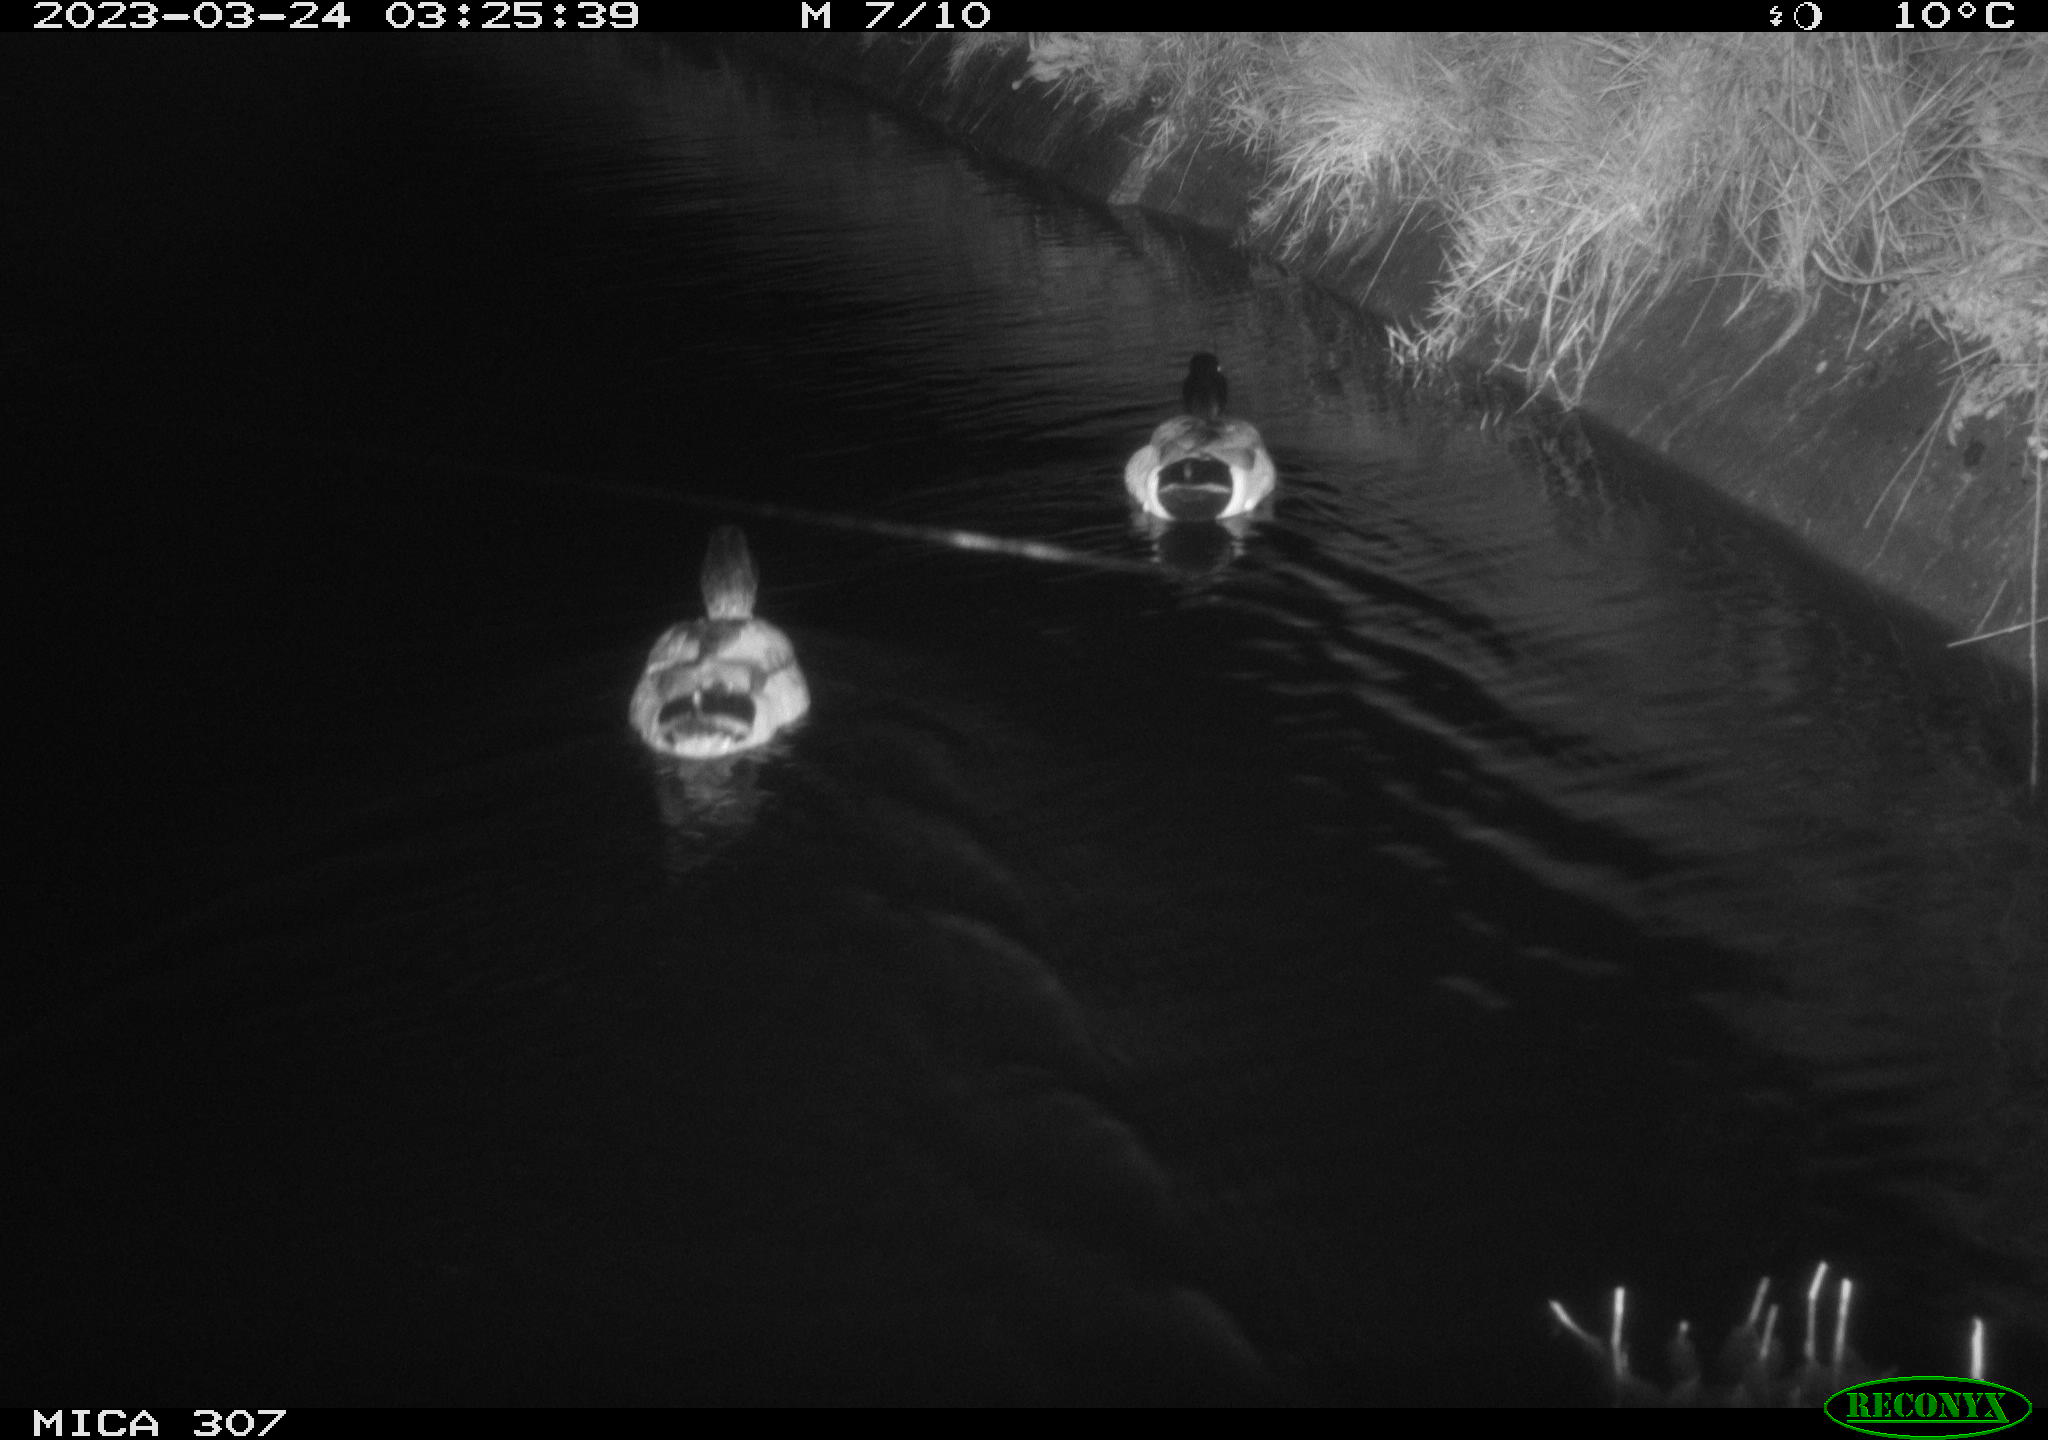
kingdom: Animalia
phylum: Chordata
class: Aves
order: Anseriformes
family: Anatidae
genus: Anas
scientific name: Anas
